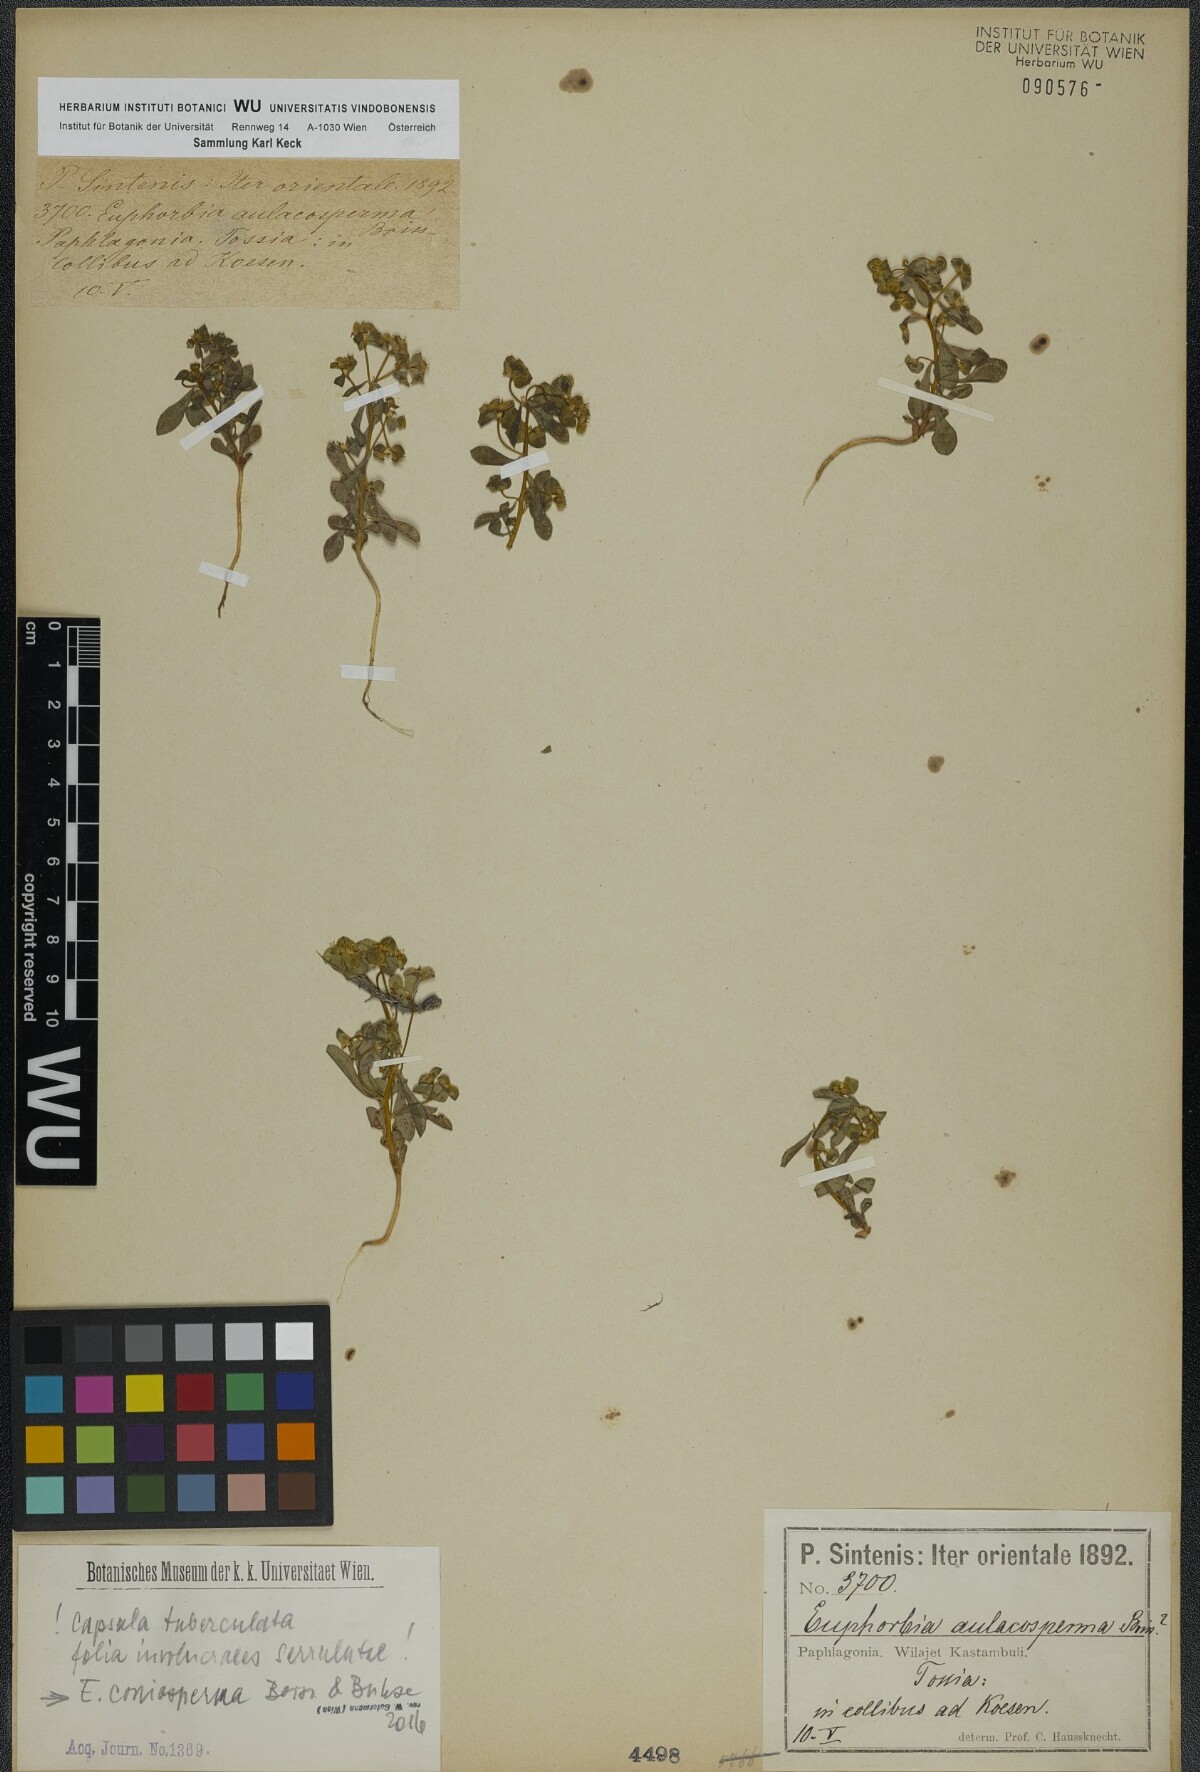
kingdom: Plantae
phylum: Tracheophyta
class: Magnoliopsida
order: Malpighiales
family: Euphorbiaceae
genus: Euphorbia
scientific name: Euphorbia coniosperma
